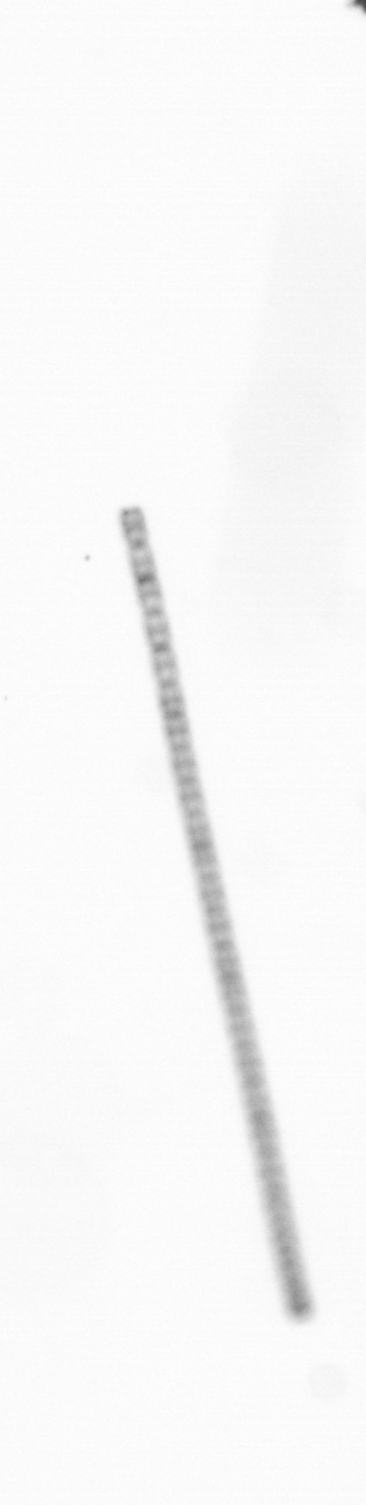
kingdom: Chromista
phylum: Ochrophyta
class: Bacillariophyceae
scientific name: Bacillariophyceae
